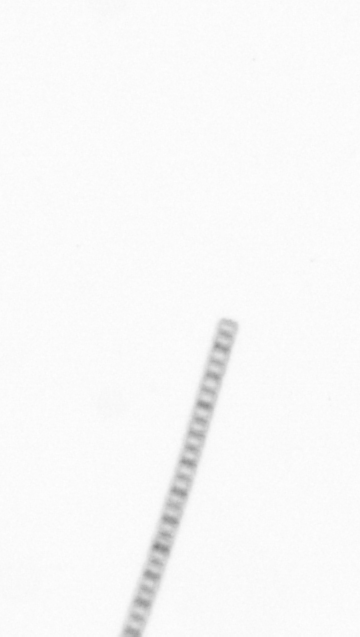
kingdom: Chromista
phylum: Ochrophyta
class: Bacillariophyceae
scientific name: Bacillariophyceae
